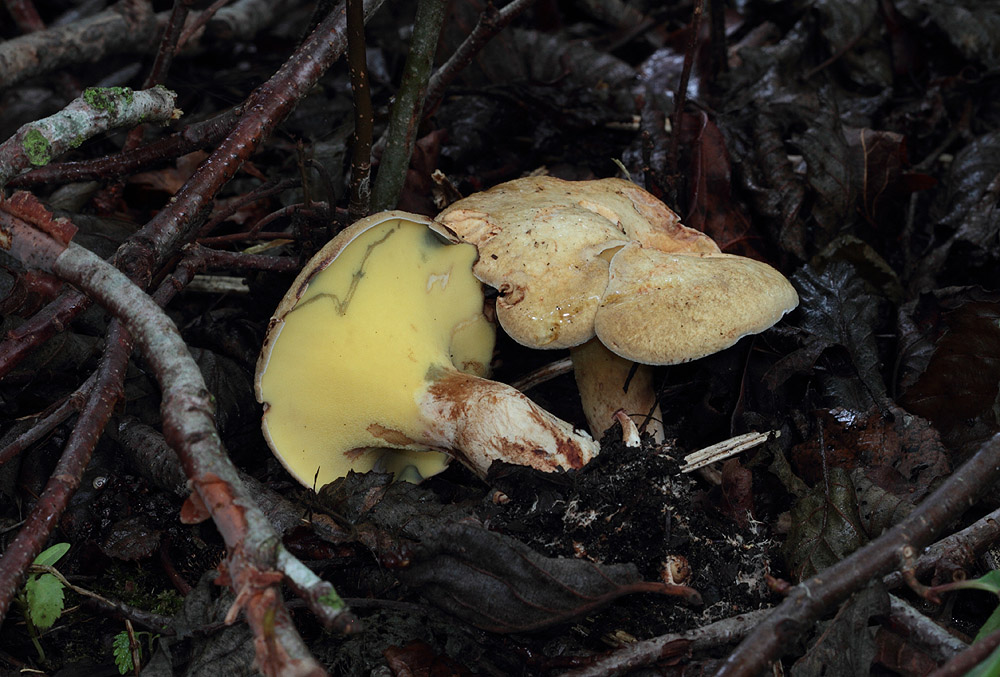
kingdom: Fungi
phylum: Basidiomycota
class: Agaricomycetes
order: Boletales
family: Paxillaceae
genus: Gyrodon
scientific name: Gyrodon lividus
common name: ellerørhat
